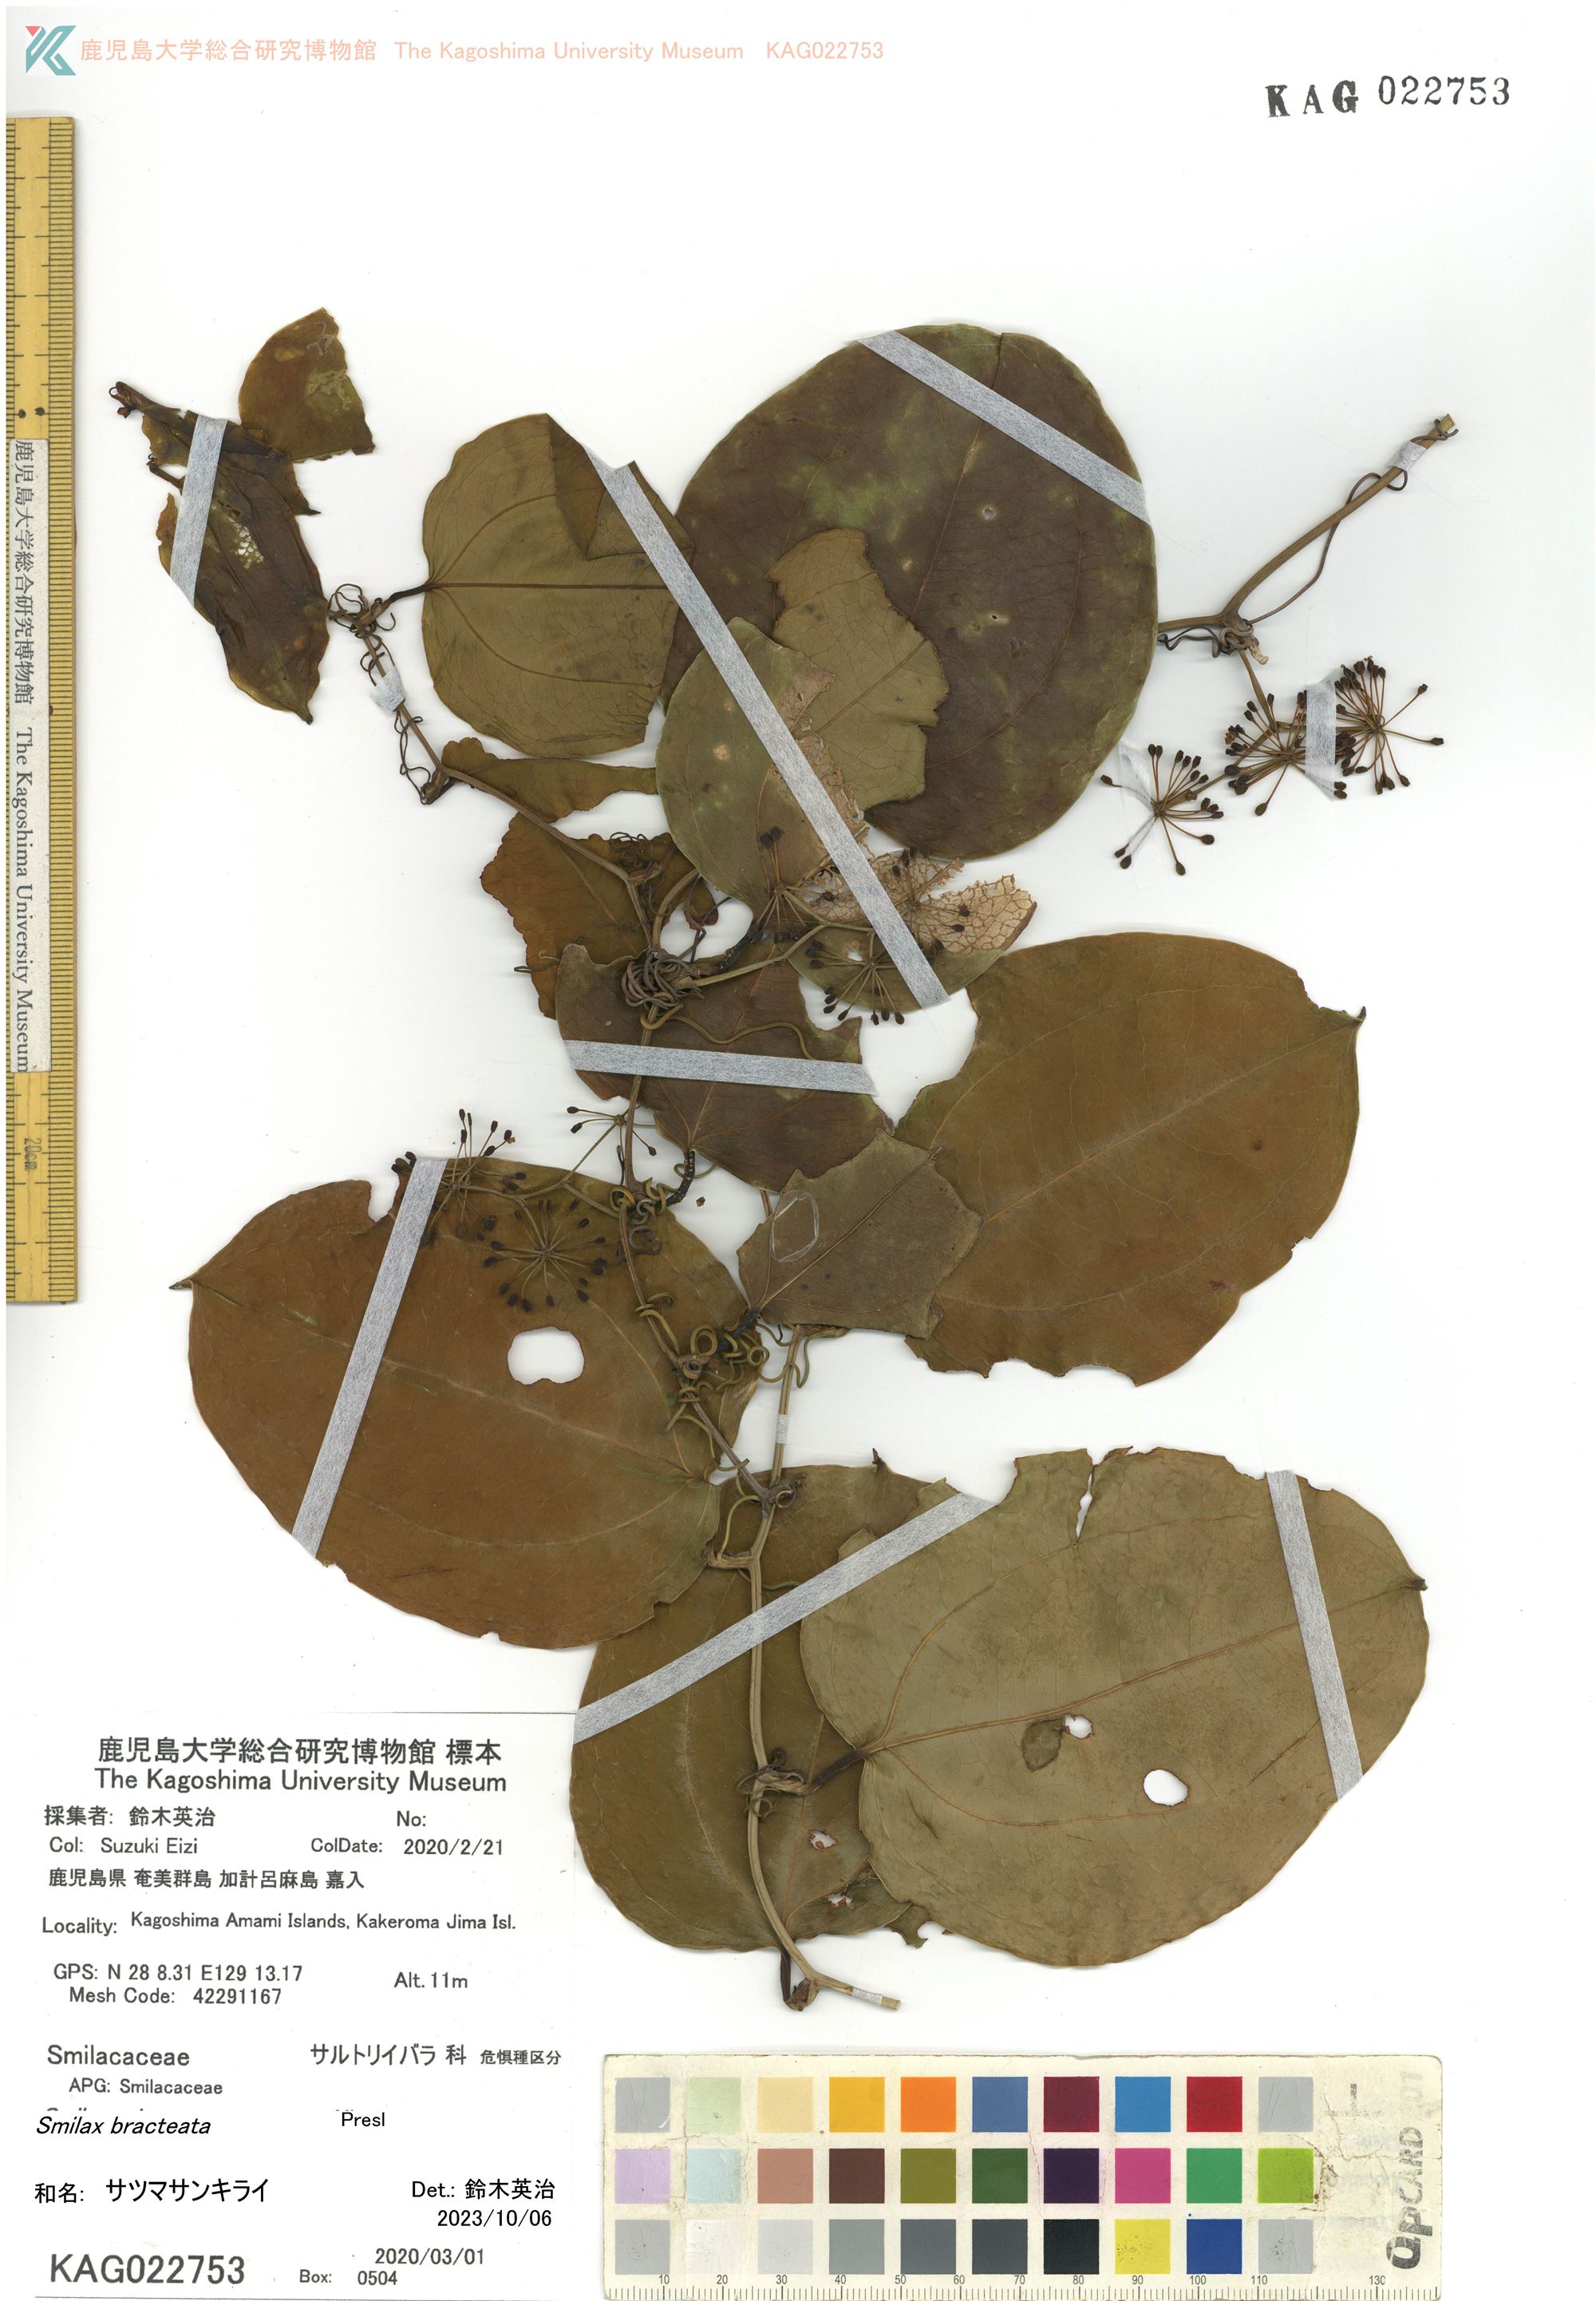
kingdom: Plantae
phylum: Tracheophyta
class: Liliopsida
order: Liliales
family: Smilacaceae
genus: Smilax
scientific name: Smilax sebeana
